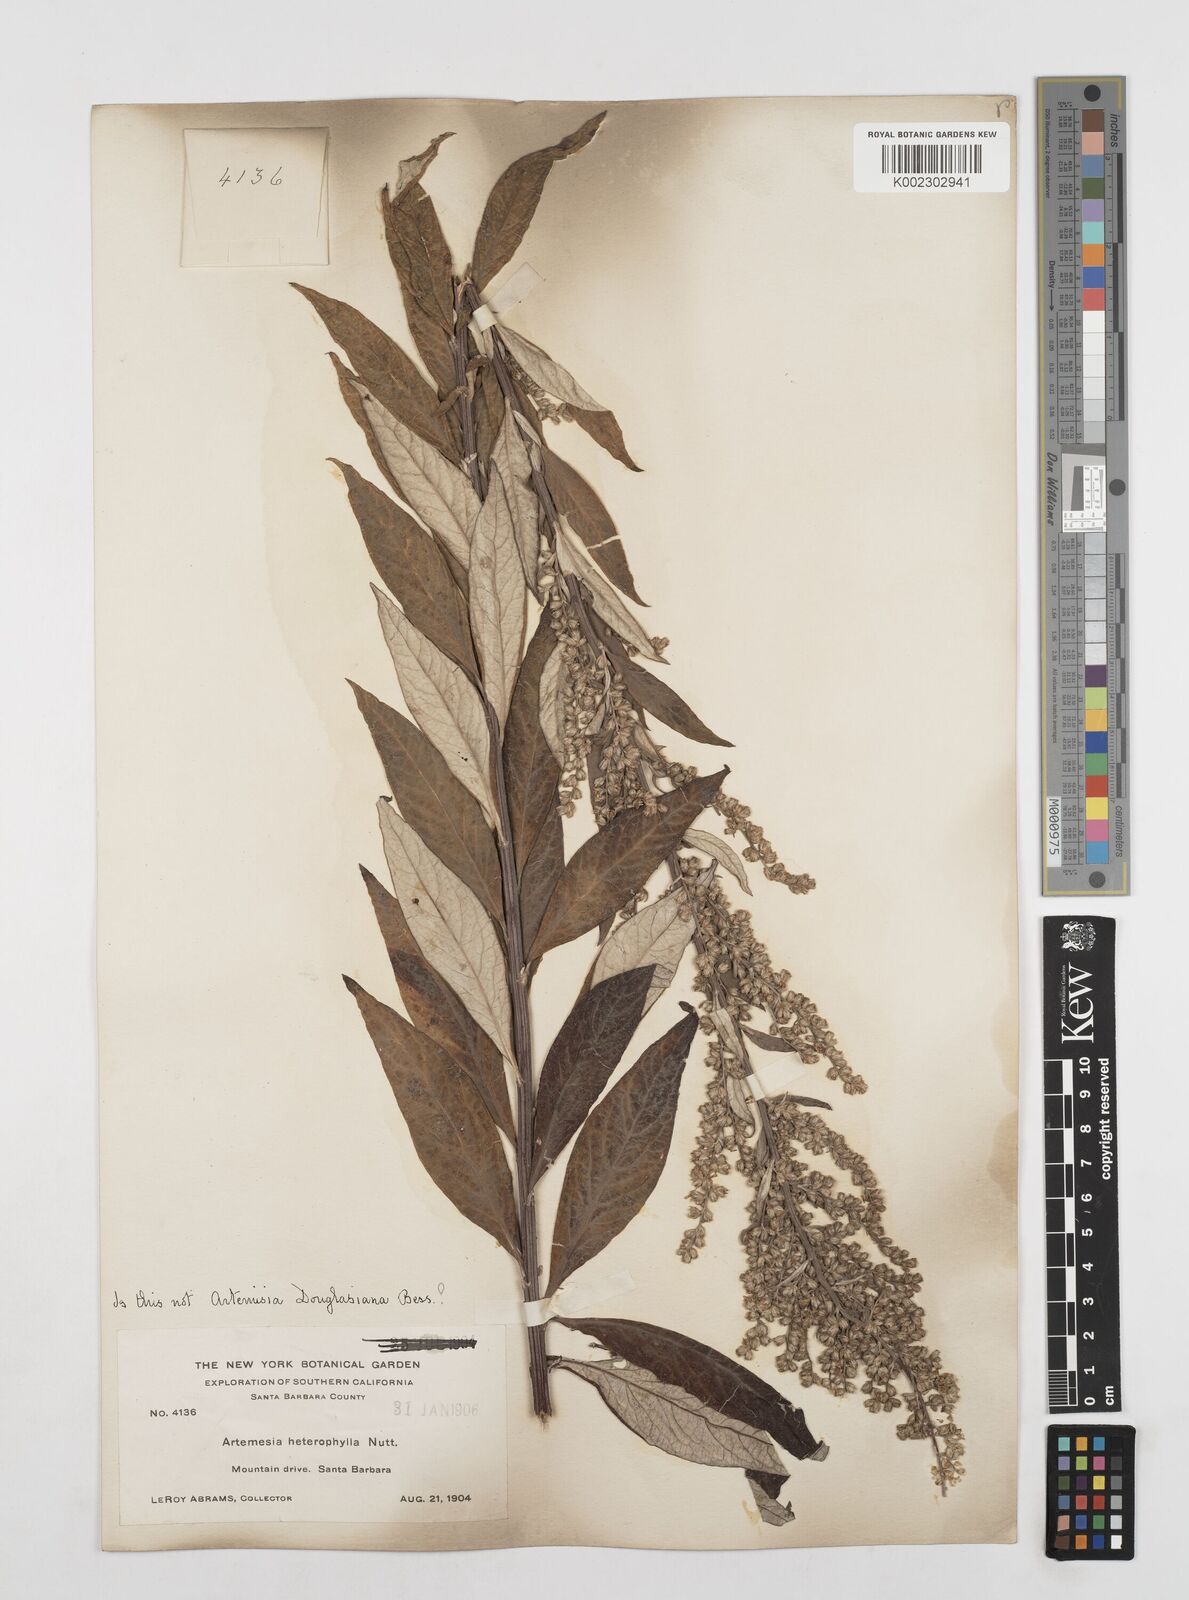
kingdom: Plantae
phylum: Tracheophyta
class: Magnoliopsida
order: Asterales
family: Asteraceae
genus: Artemisia
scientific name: Artemisia douglasiana
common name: Northwest mugwort
